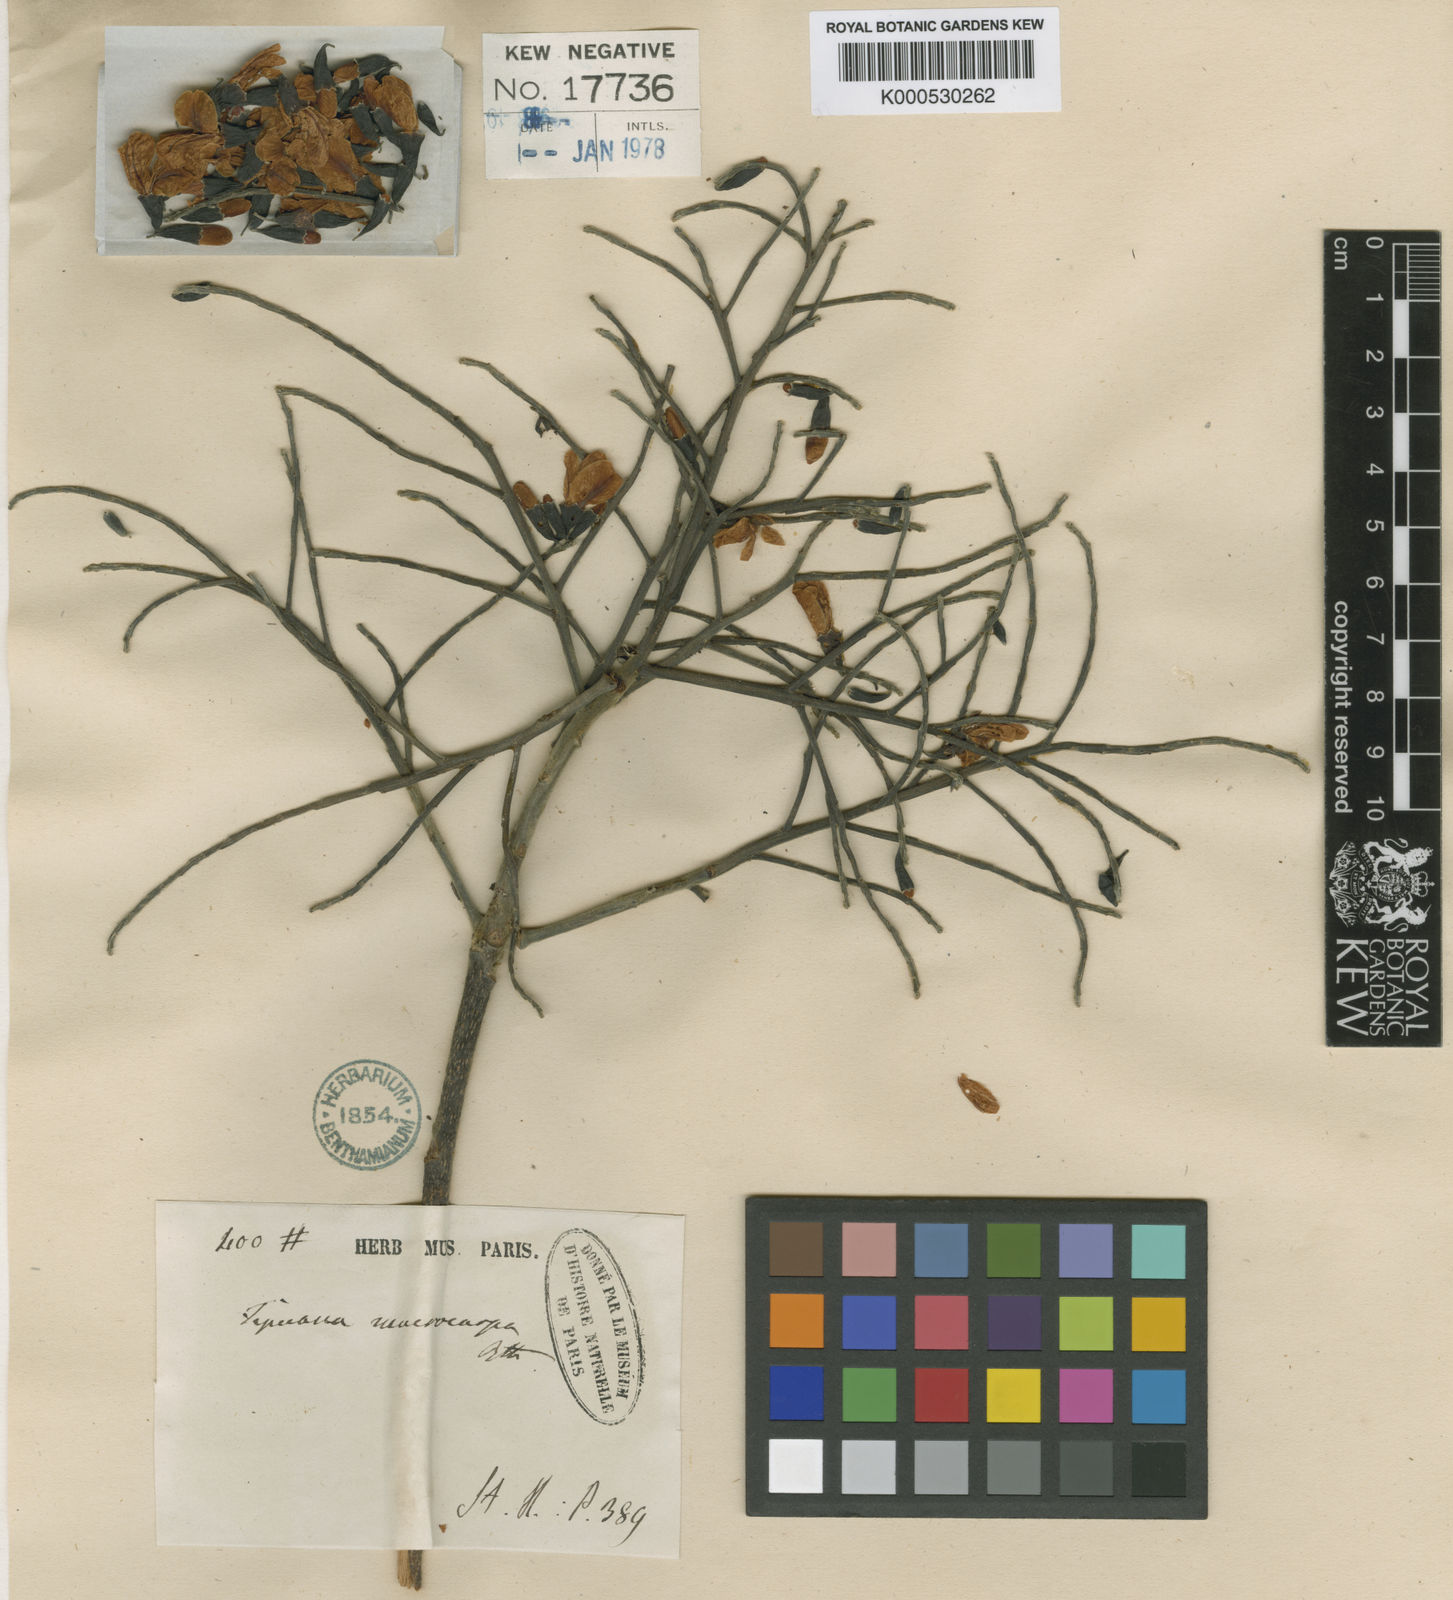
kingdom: Plantae
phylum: Tracheophyta
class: Magnoliopsida
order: Fabales
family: Fabaceae
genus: Vatairea
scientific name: Vatairea macrocarpa
